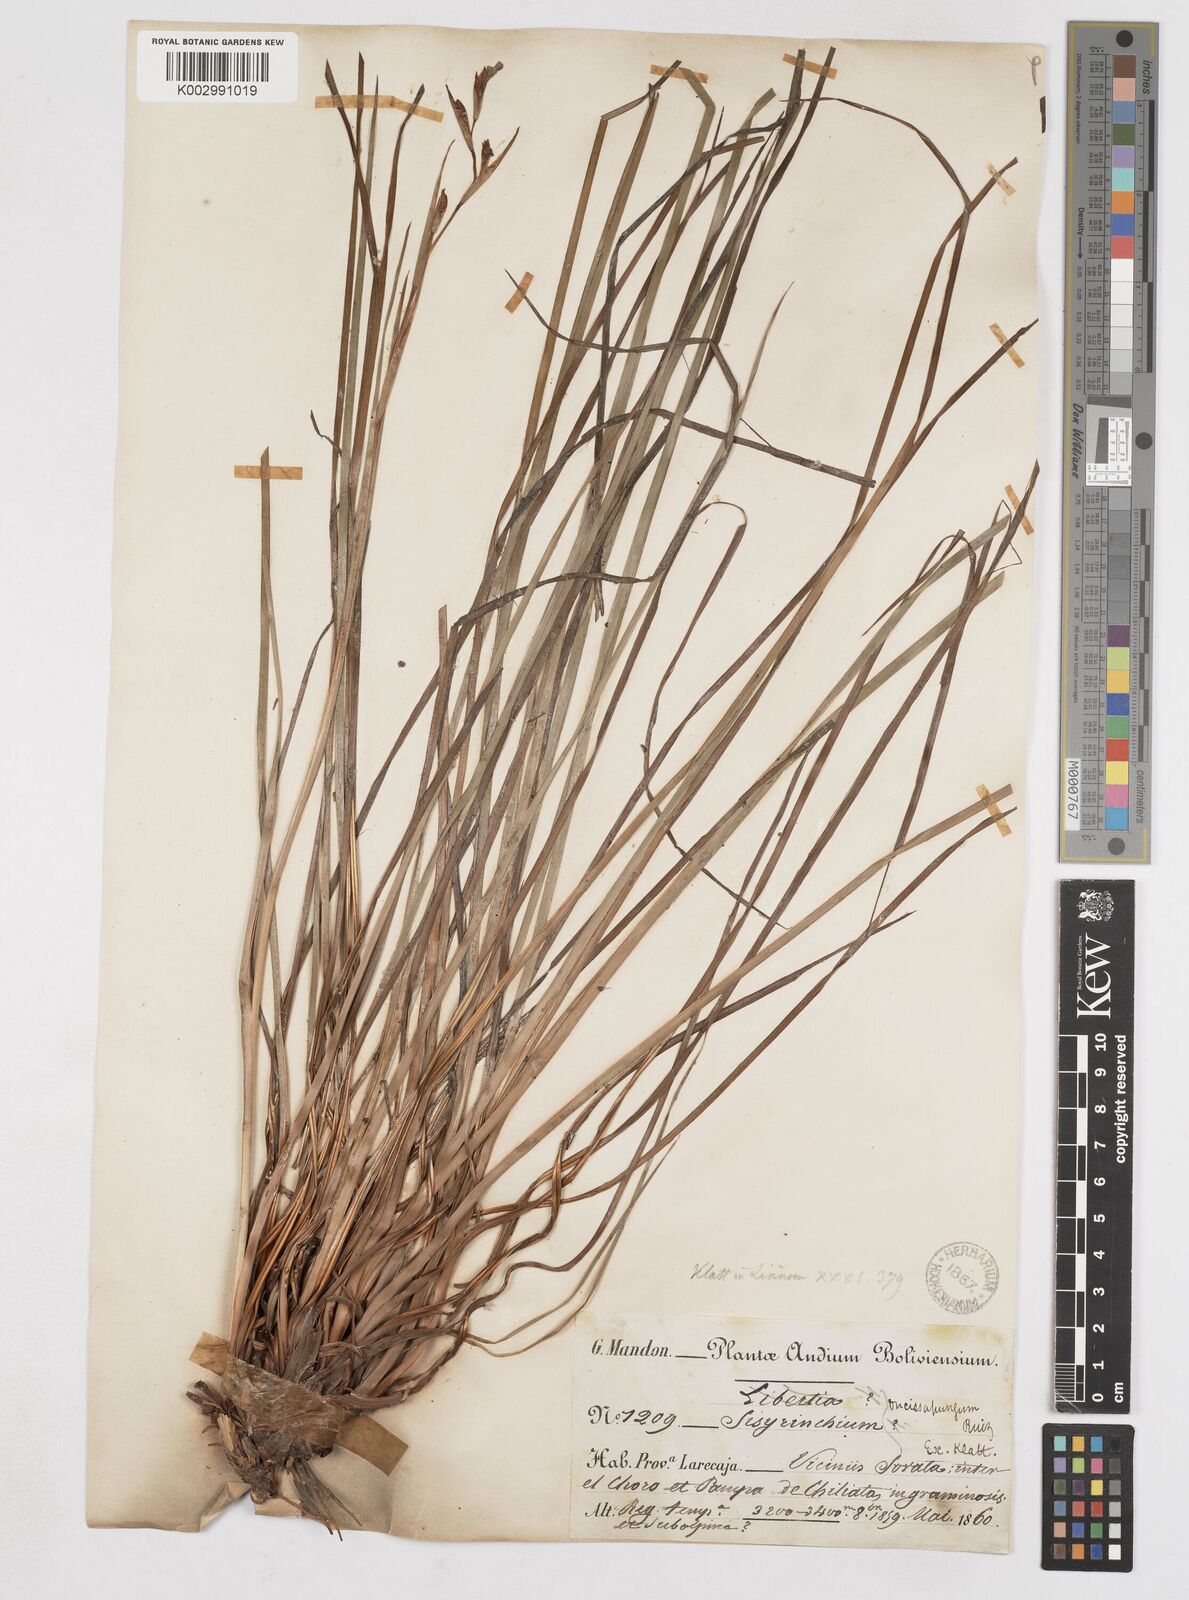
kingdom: Plantae
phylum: Tracheophyta
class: Liliopsida
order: Asparagales
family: Iridaceae
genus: Orthrosanthus
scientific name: Orthrosanthus occissapungus
